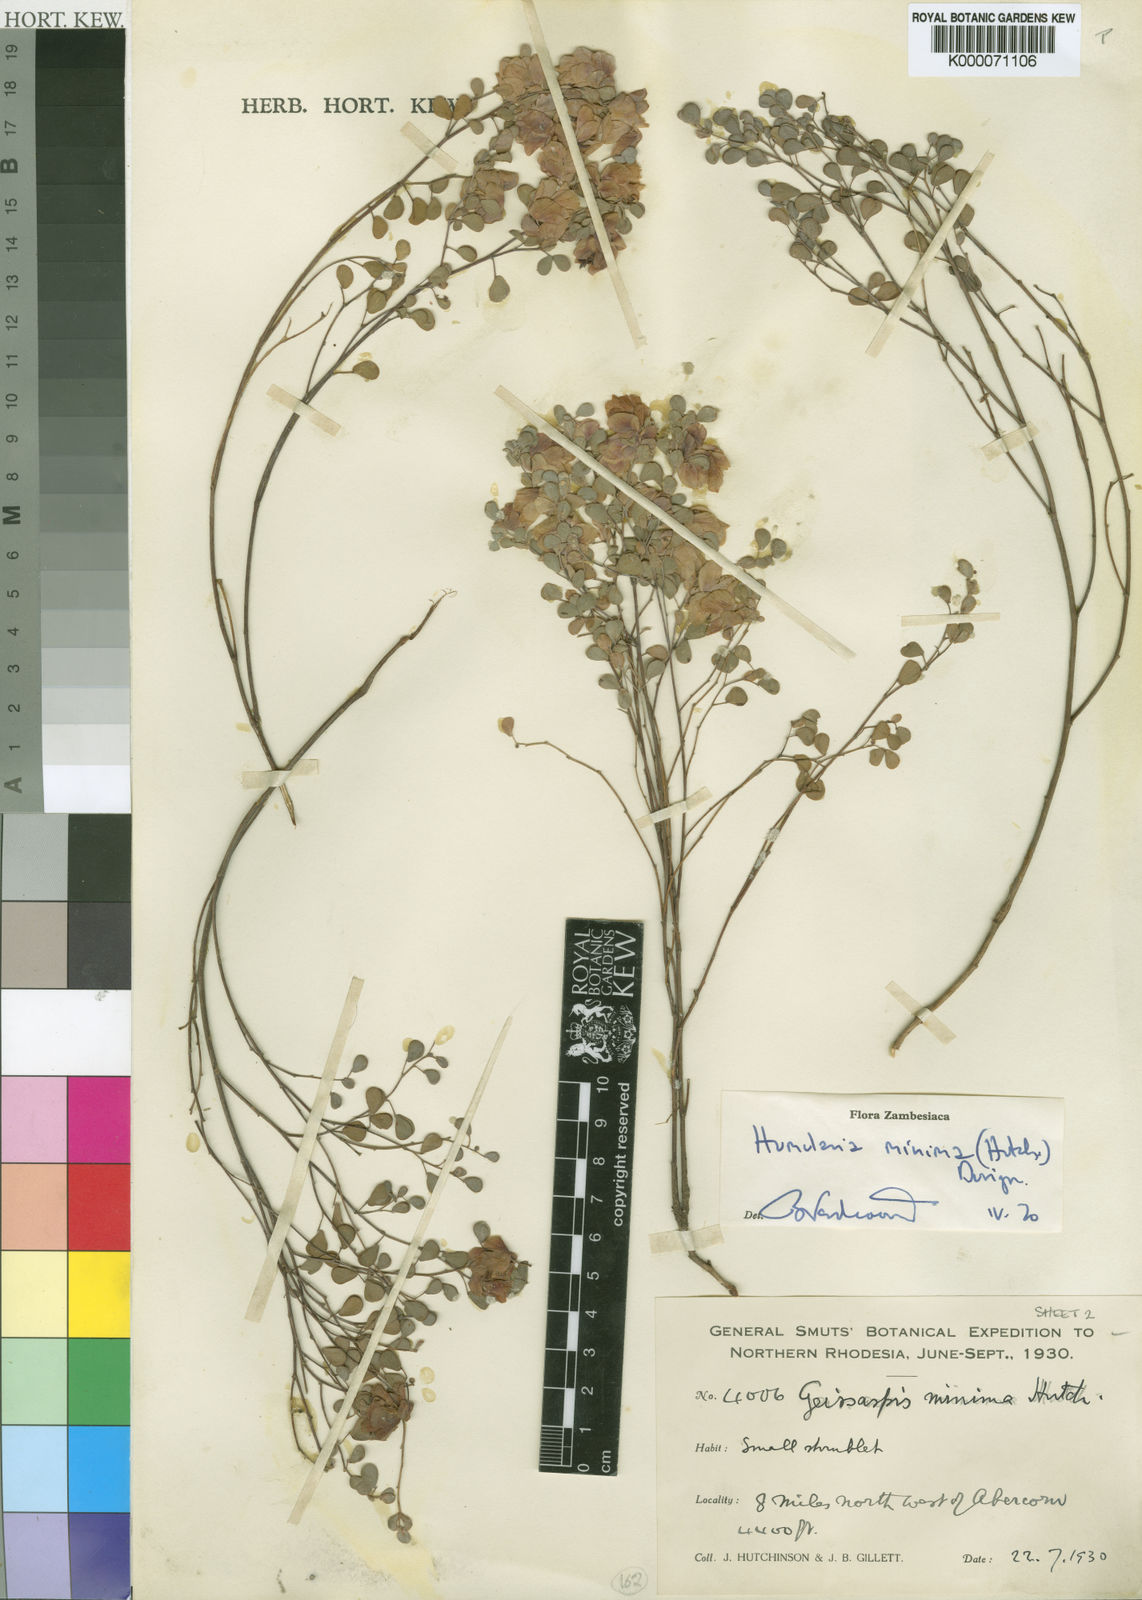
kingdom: Plantae
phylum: Tracheophyta
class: Magnoliopsida
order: Fabales
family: Fabaceae
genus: Humularia
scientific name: Humularia minima
